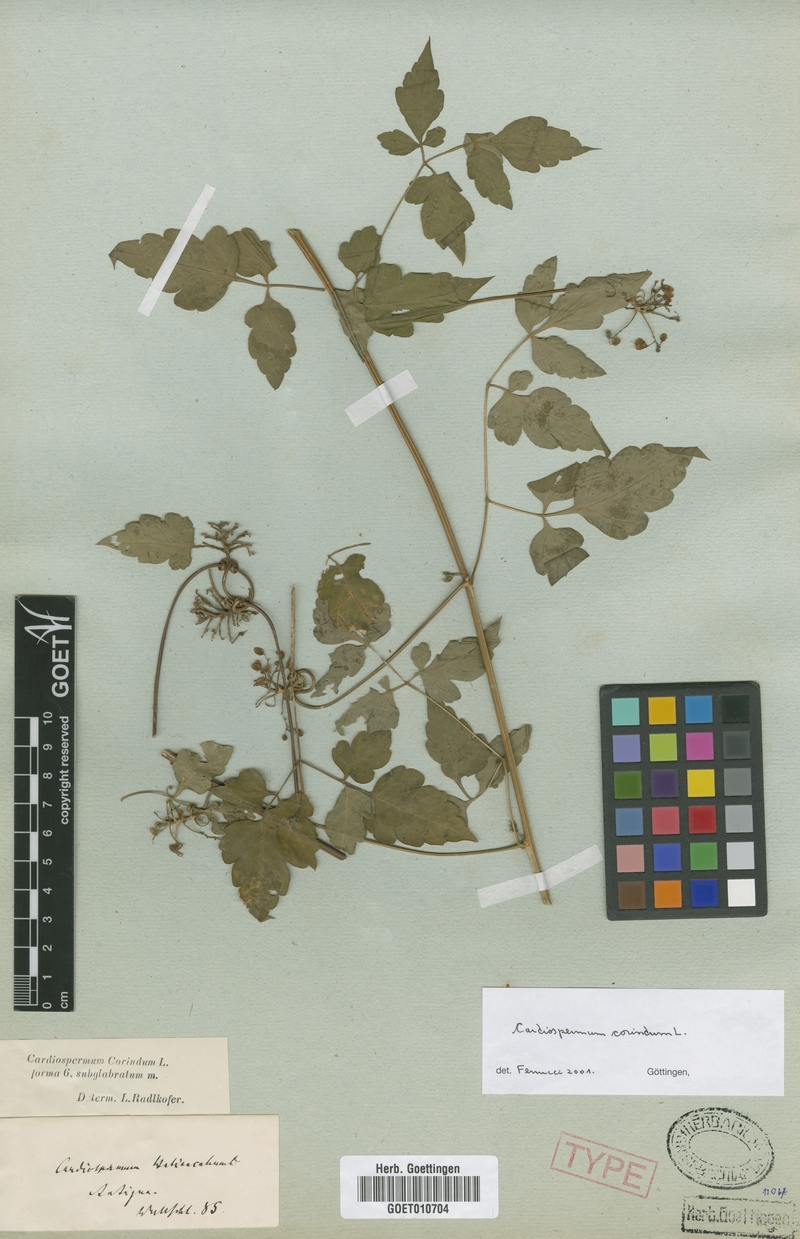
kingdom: Plantae
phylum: Tracheophyta
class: Magnoliopsida
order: Sapindales
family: Sapindaceae
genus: Cardiospermum
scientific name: Cardiospermum corindum
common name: Faux persil
